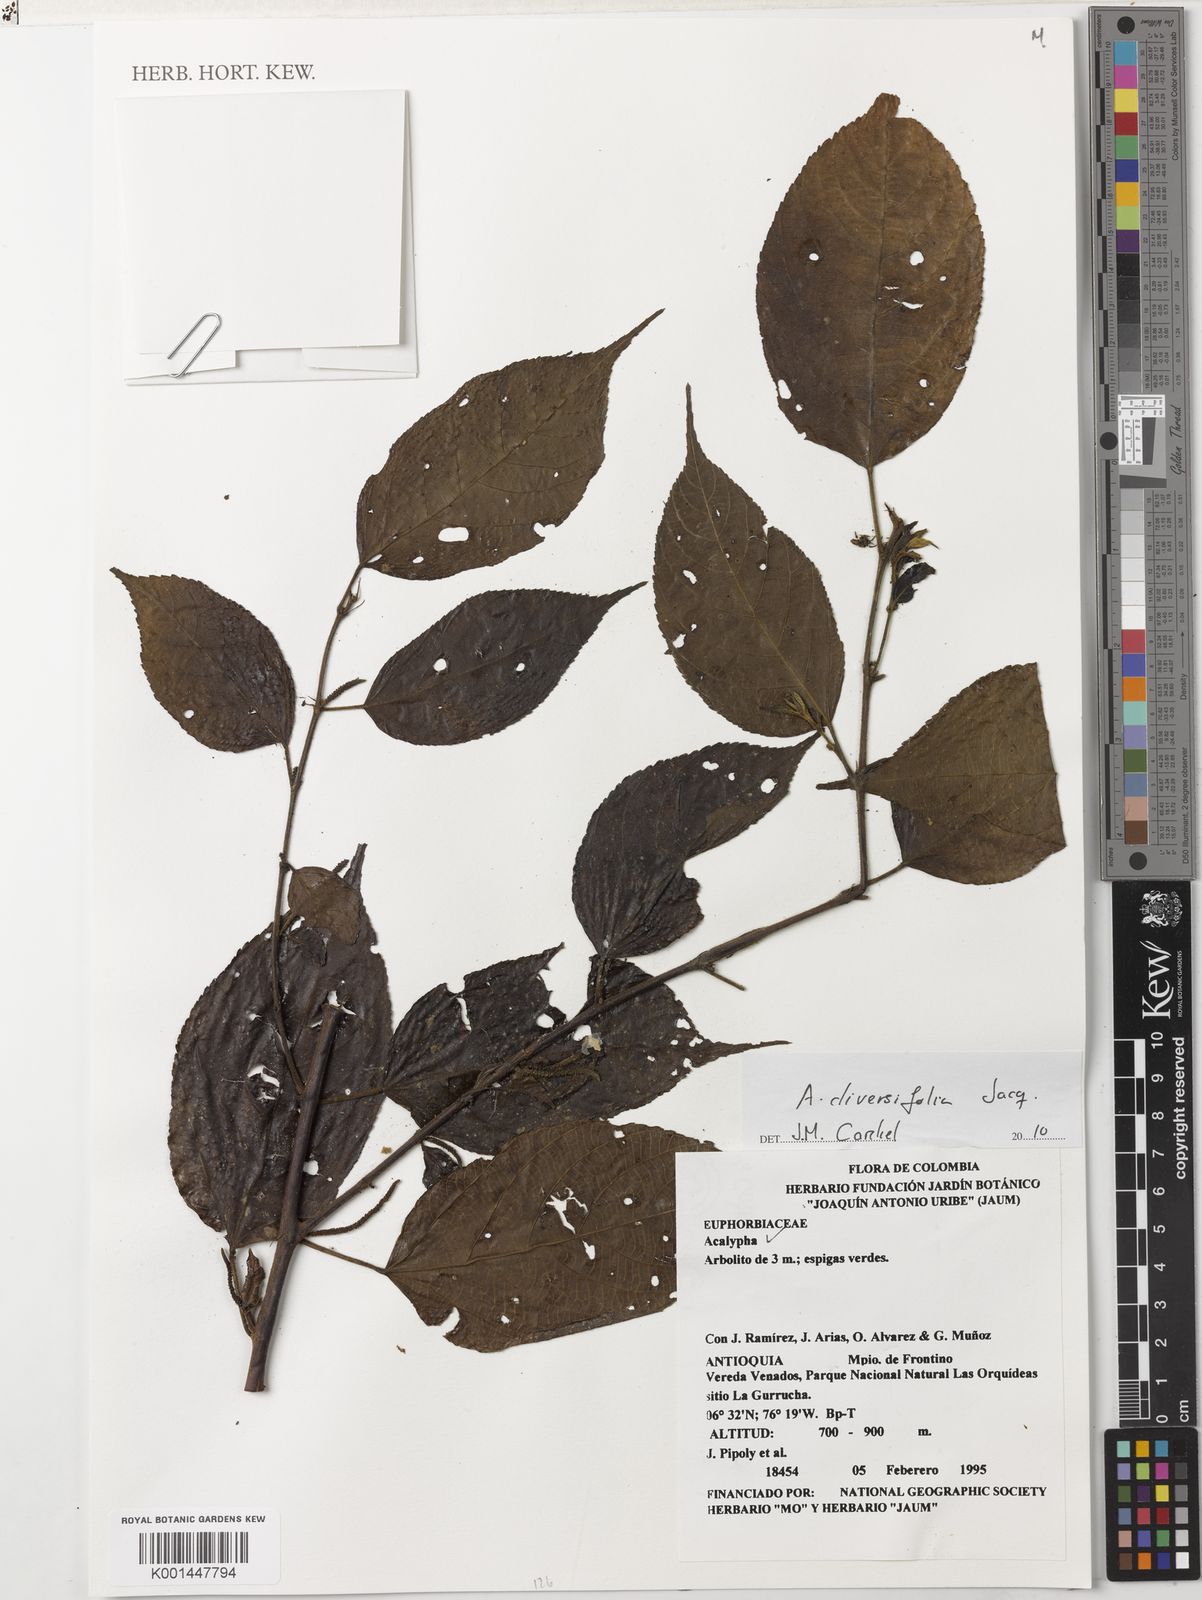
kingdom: Plantae
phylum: Tracheophyta
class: Magnoliopsida
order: Malpighiales
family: Euphorbiaceae
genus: Acalypha
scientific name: Acalypha diversifolia
